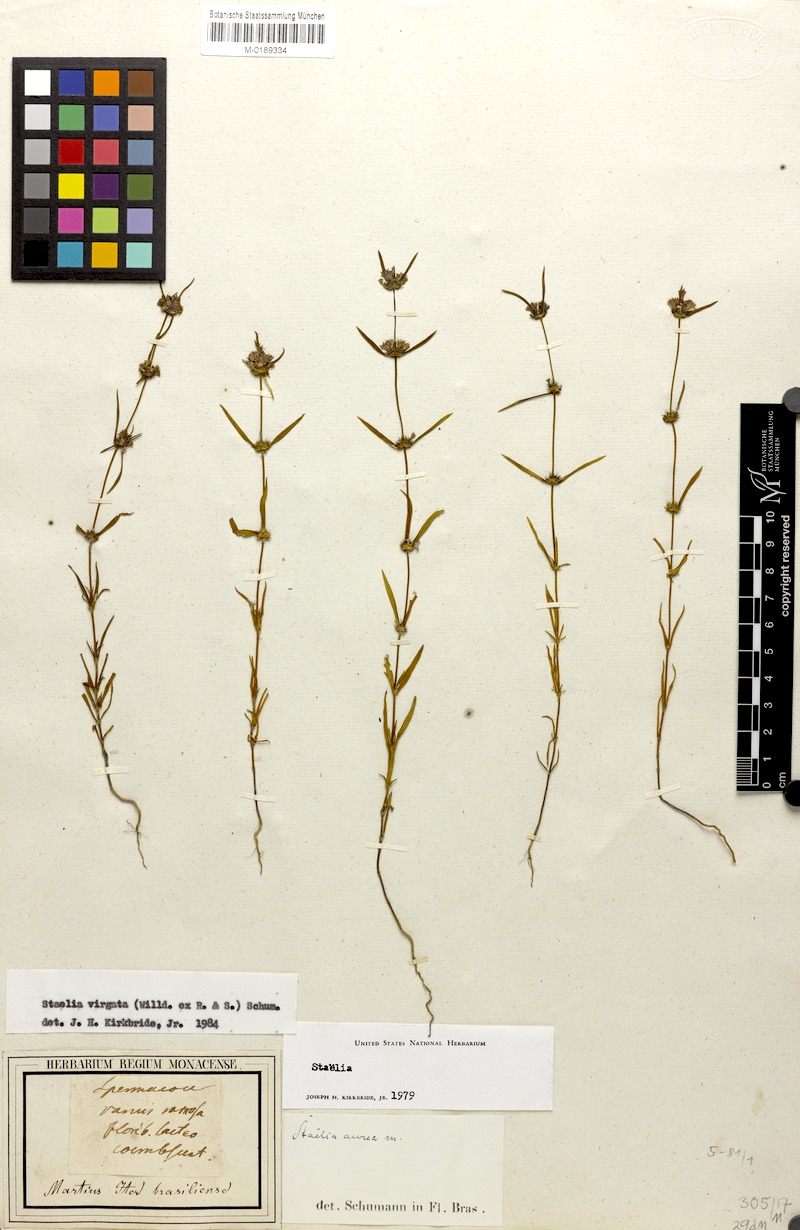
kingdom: Plantae
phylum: Tracheophyta
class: Magnoliopsida
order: Gentianales
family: Rubiaceae
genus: Staelia
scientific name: Staelia virgata
